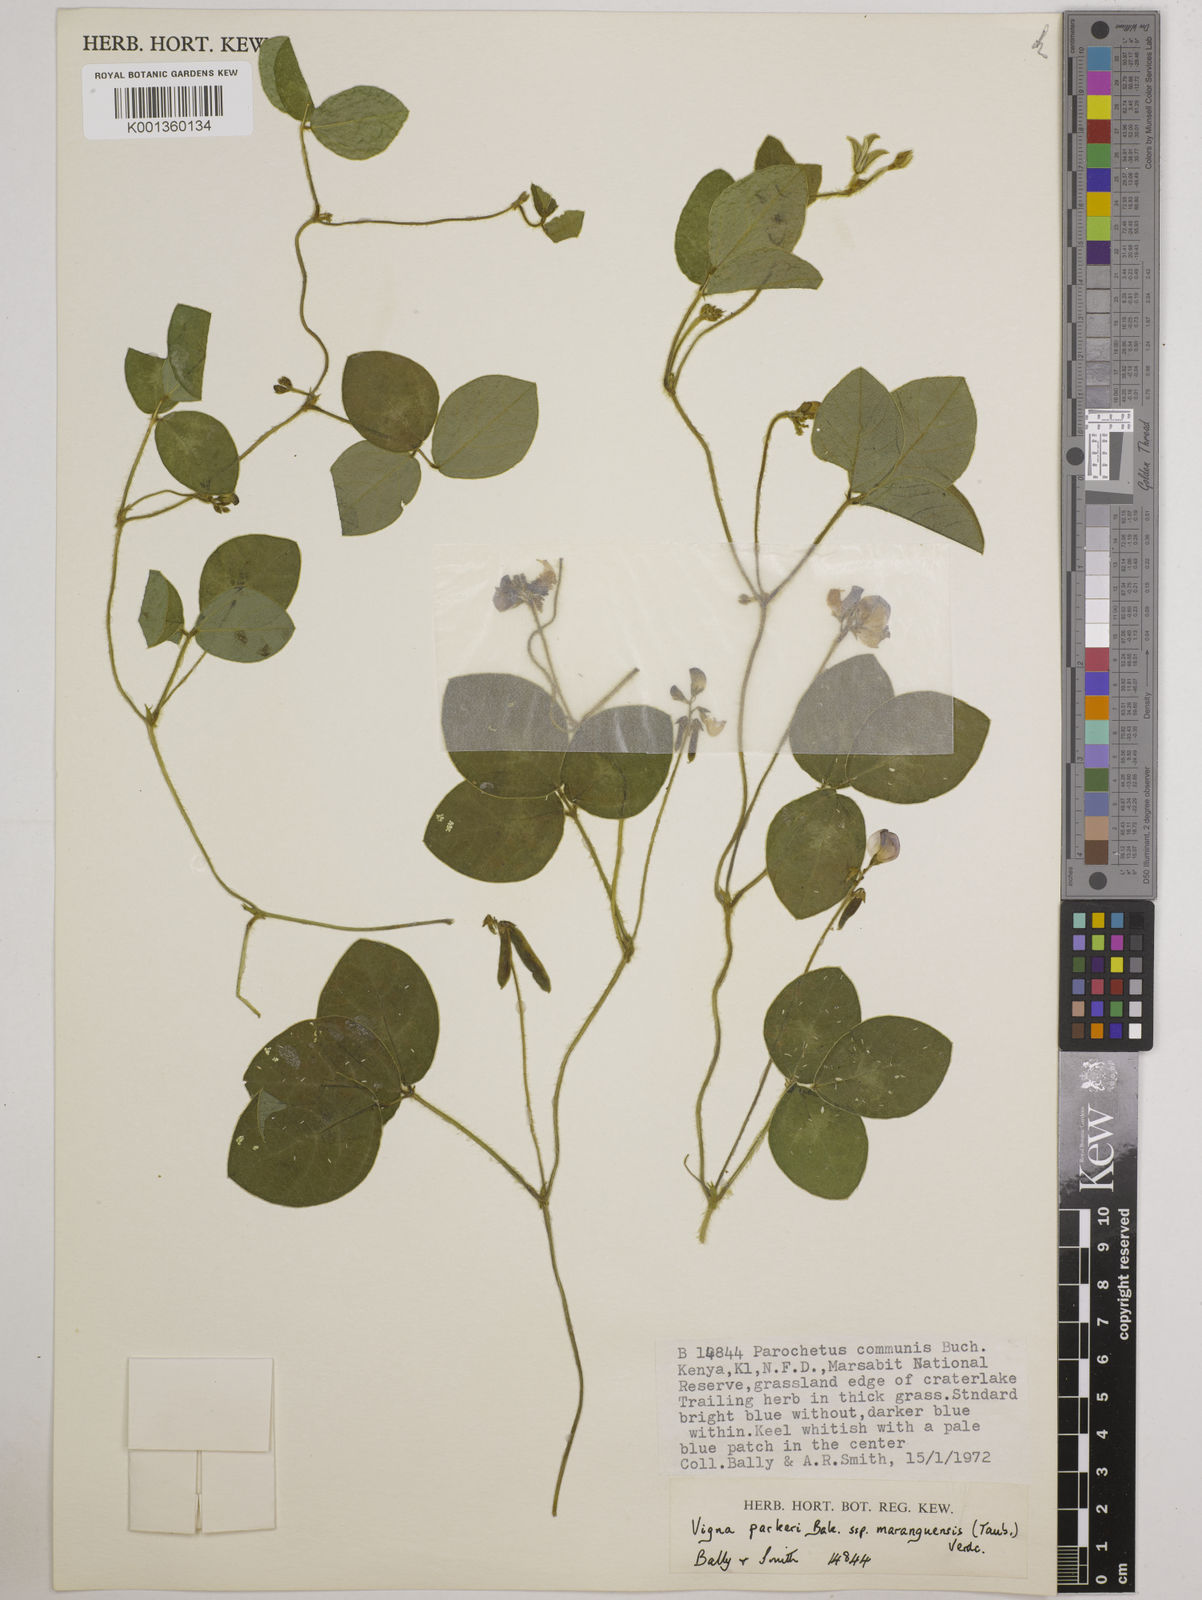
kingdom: Plantae
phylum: Tracheophyta
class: Magnoliopsida
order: Fabales
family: Fabaceae
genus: Vigna
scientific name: Vigna
